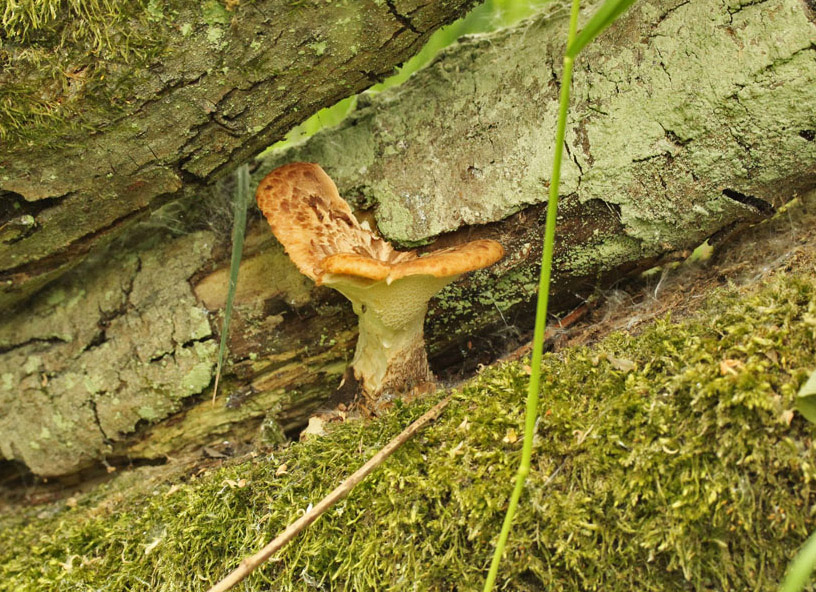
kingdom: Fungi
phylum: Basidiomycota
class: Agaricomycetes
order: Polyporales
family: Polyporaceae
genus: Cerioporus
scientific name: Cerioporus squamosus
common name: skællet stilkporesvamp
